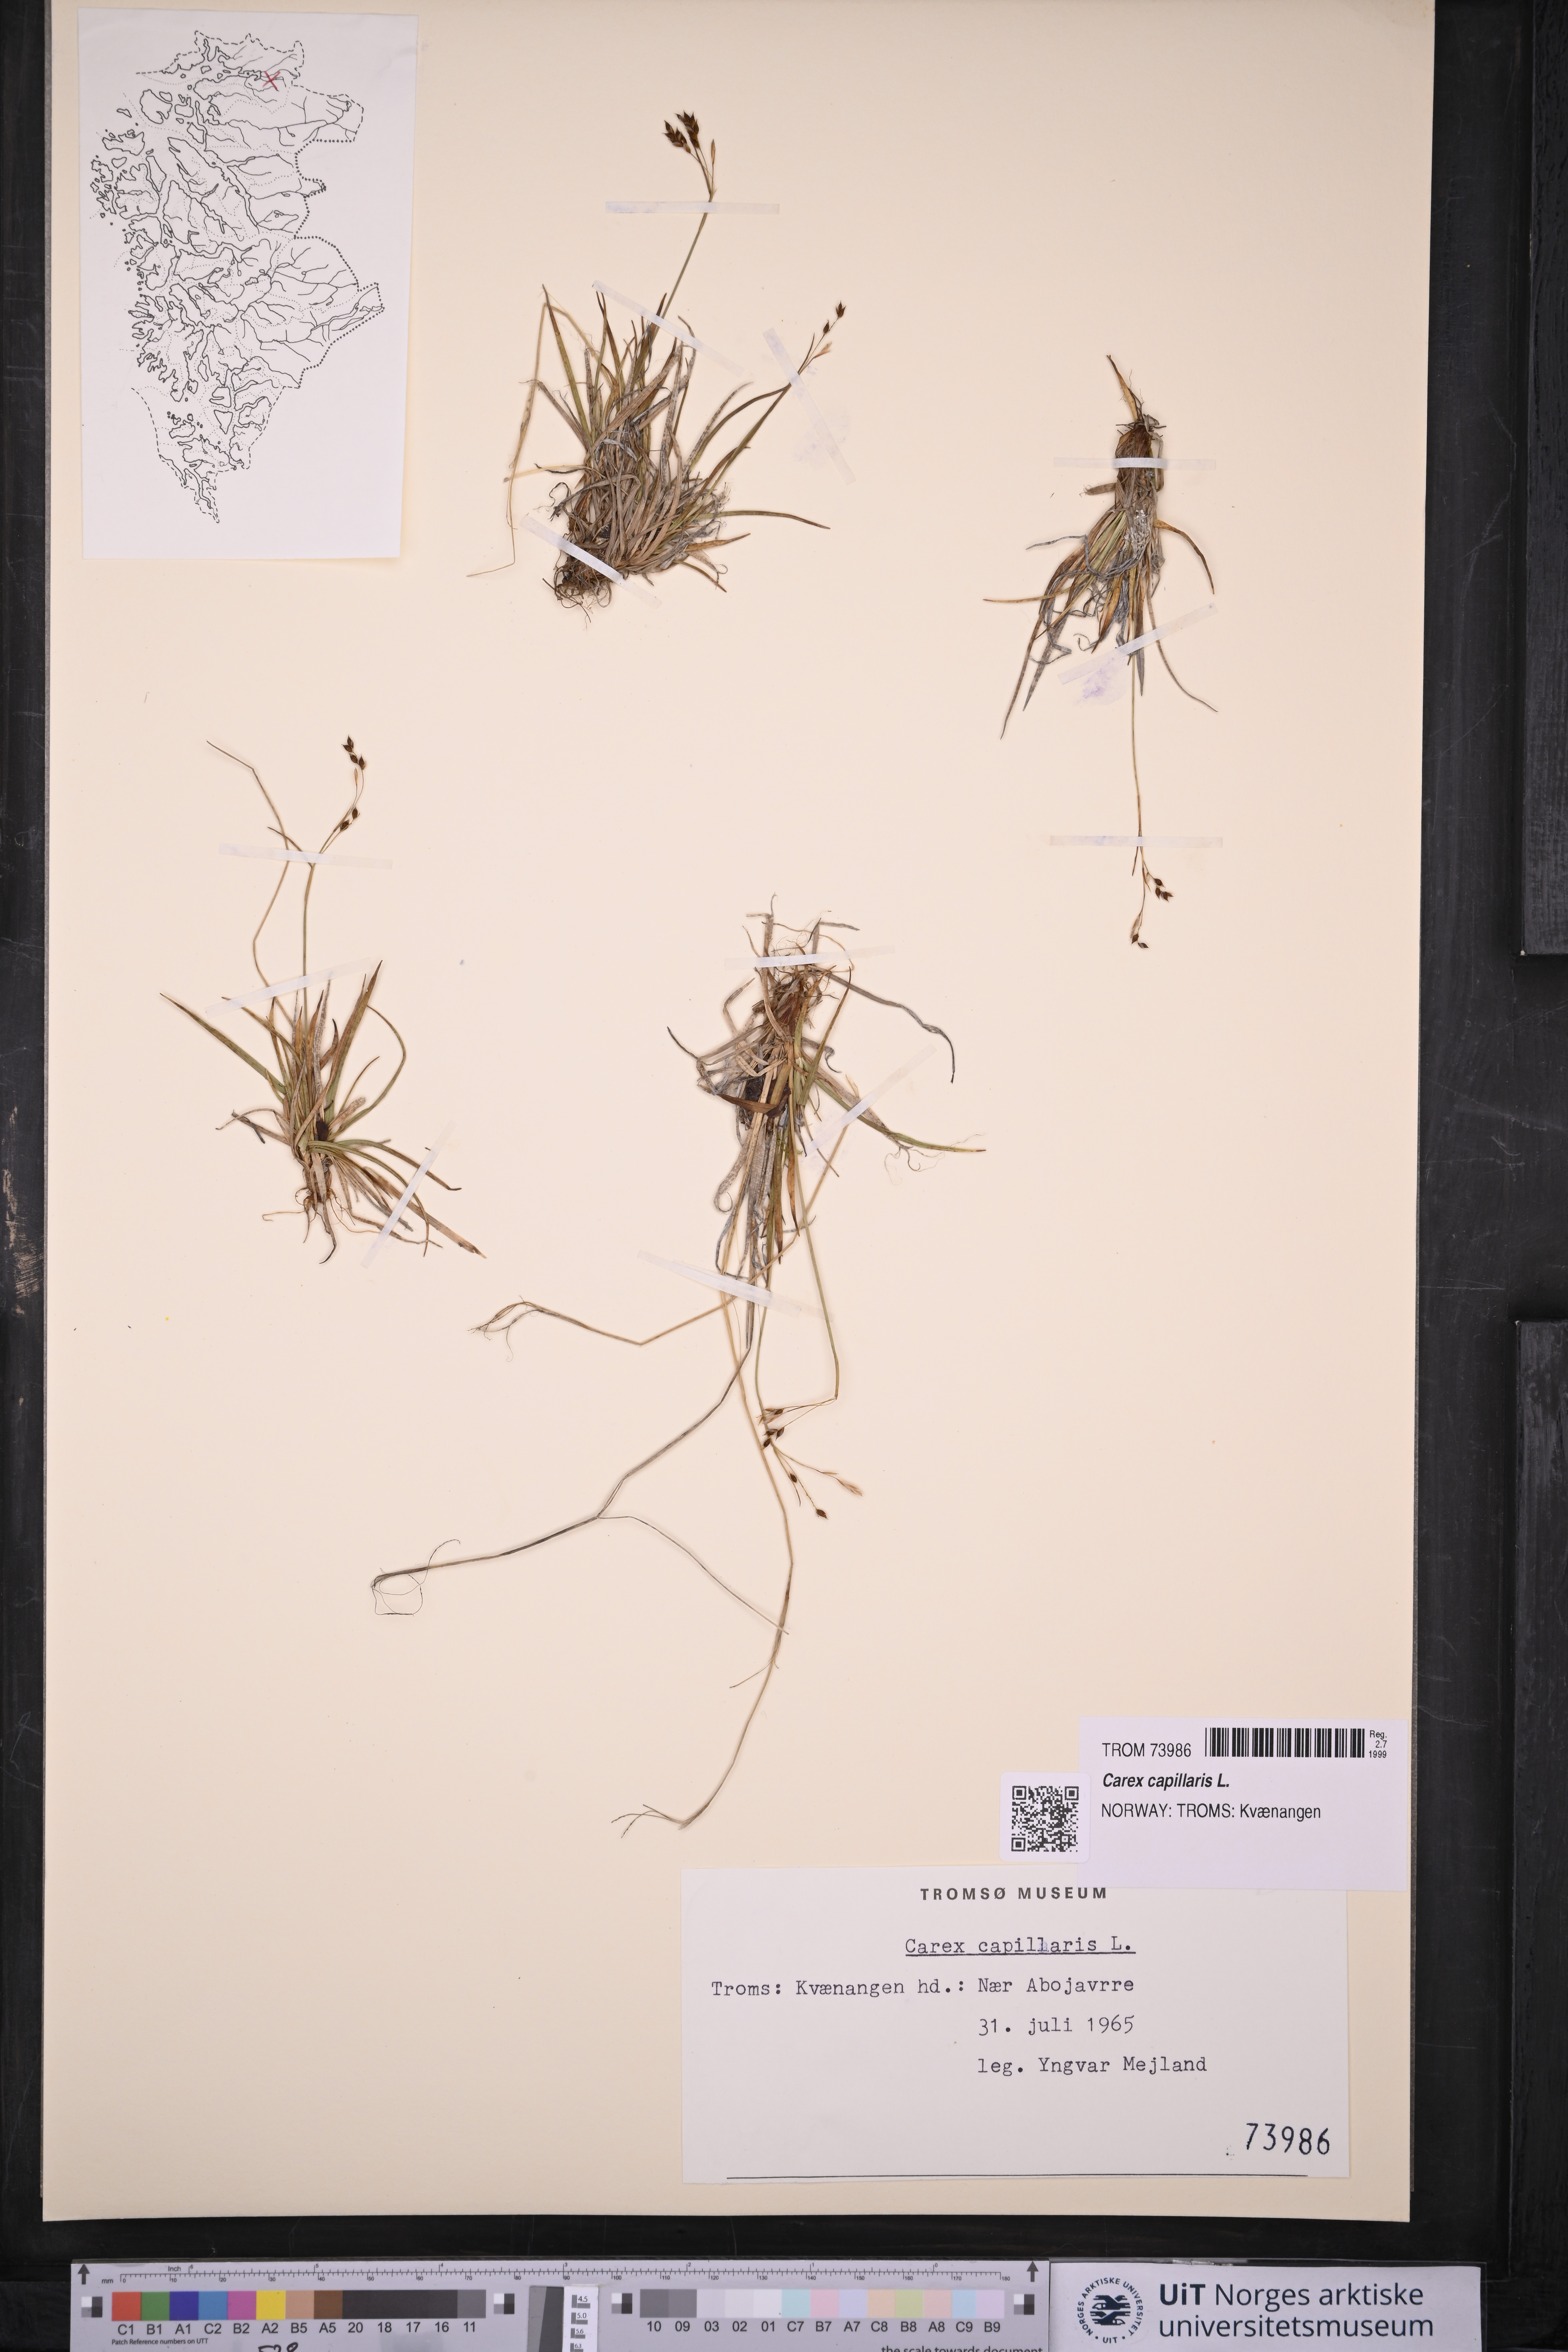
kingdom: Plantae
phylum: Tracheophyta
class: Liliopsida
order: Poales
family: Cyperaceae
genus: Carex
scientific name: Carex capillaris
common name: Hair sedge
